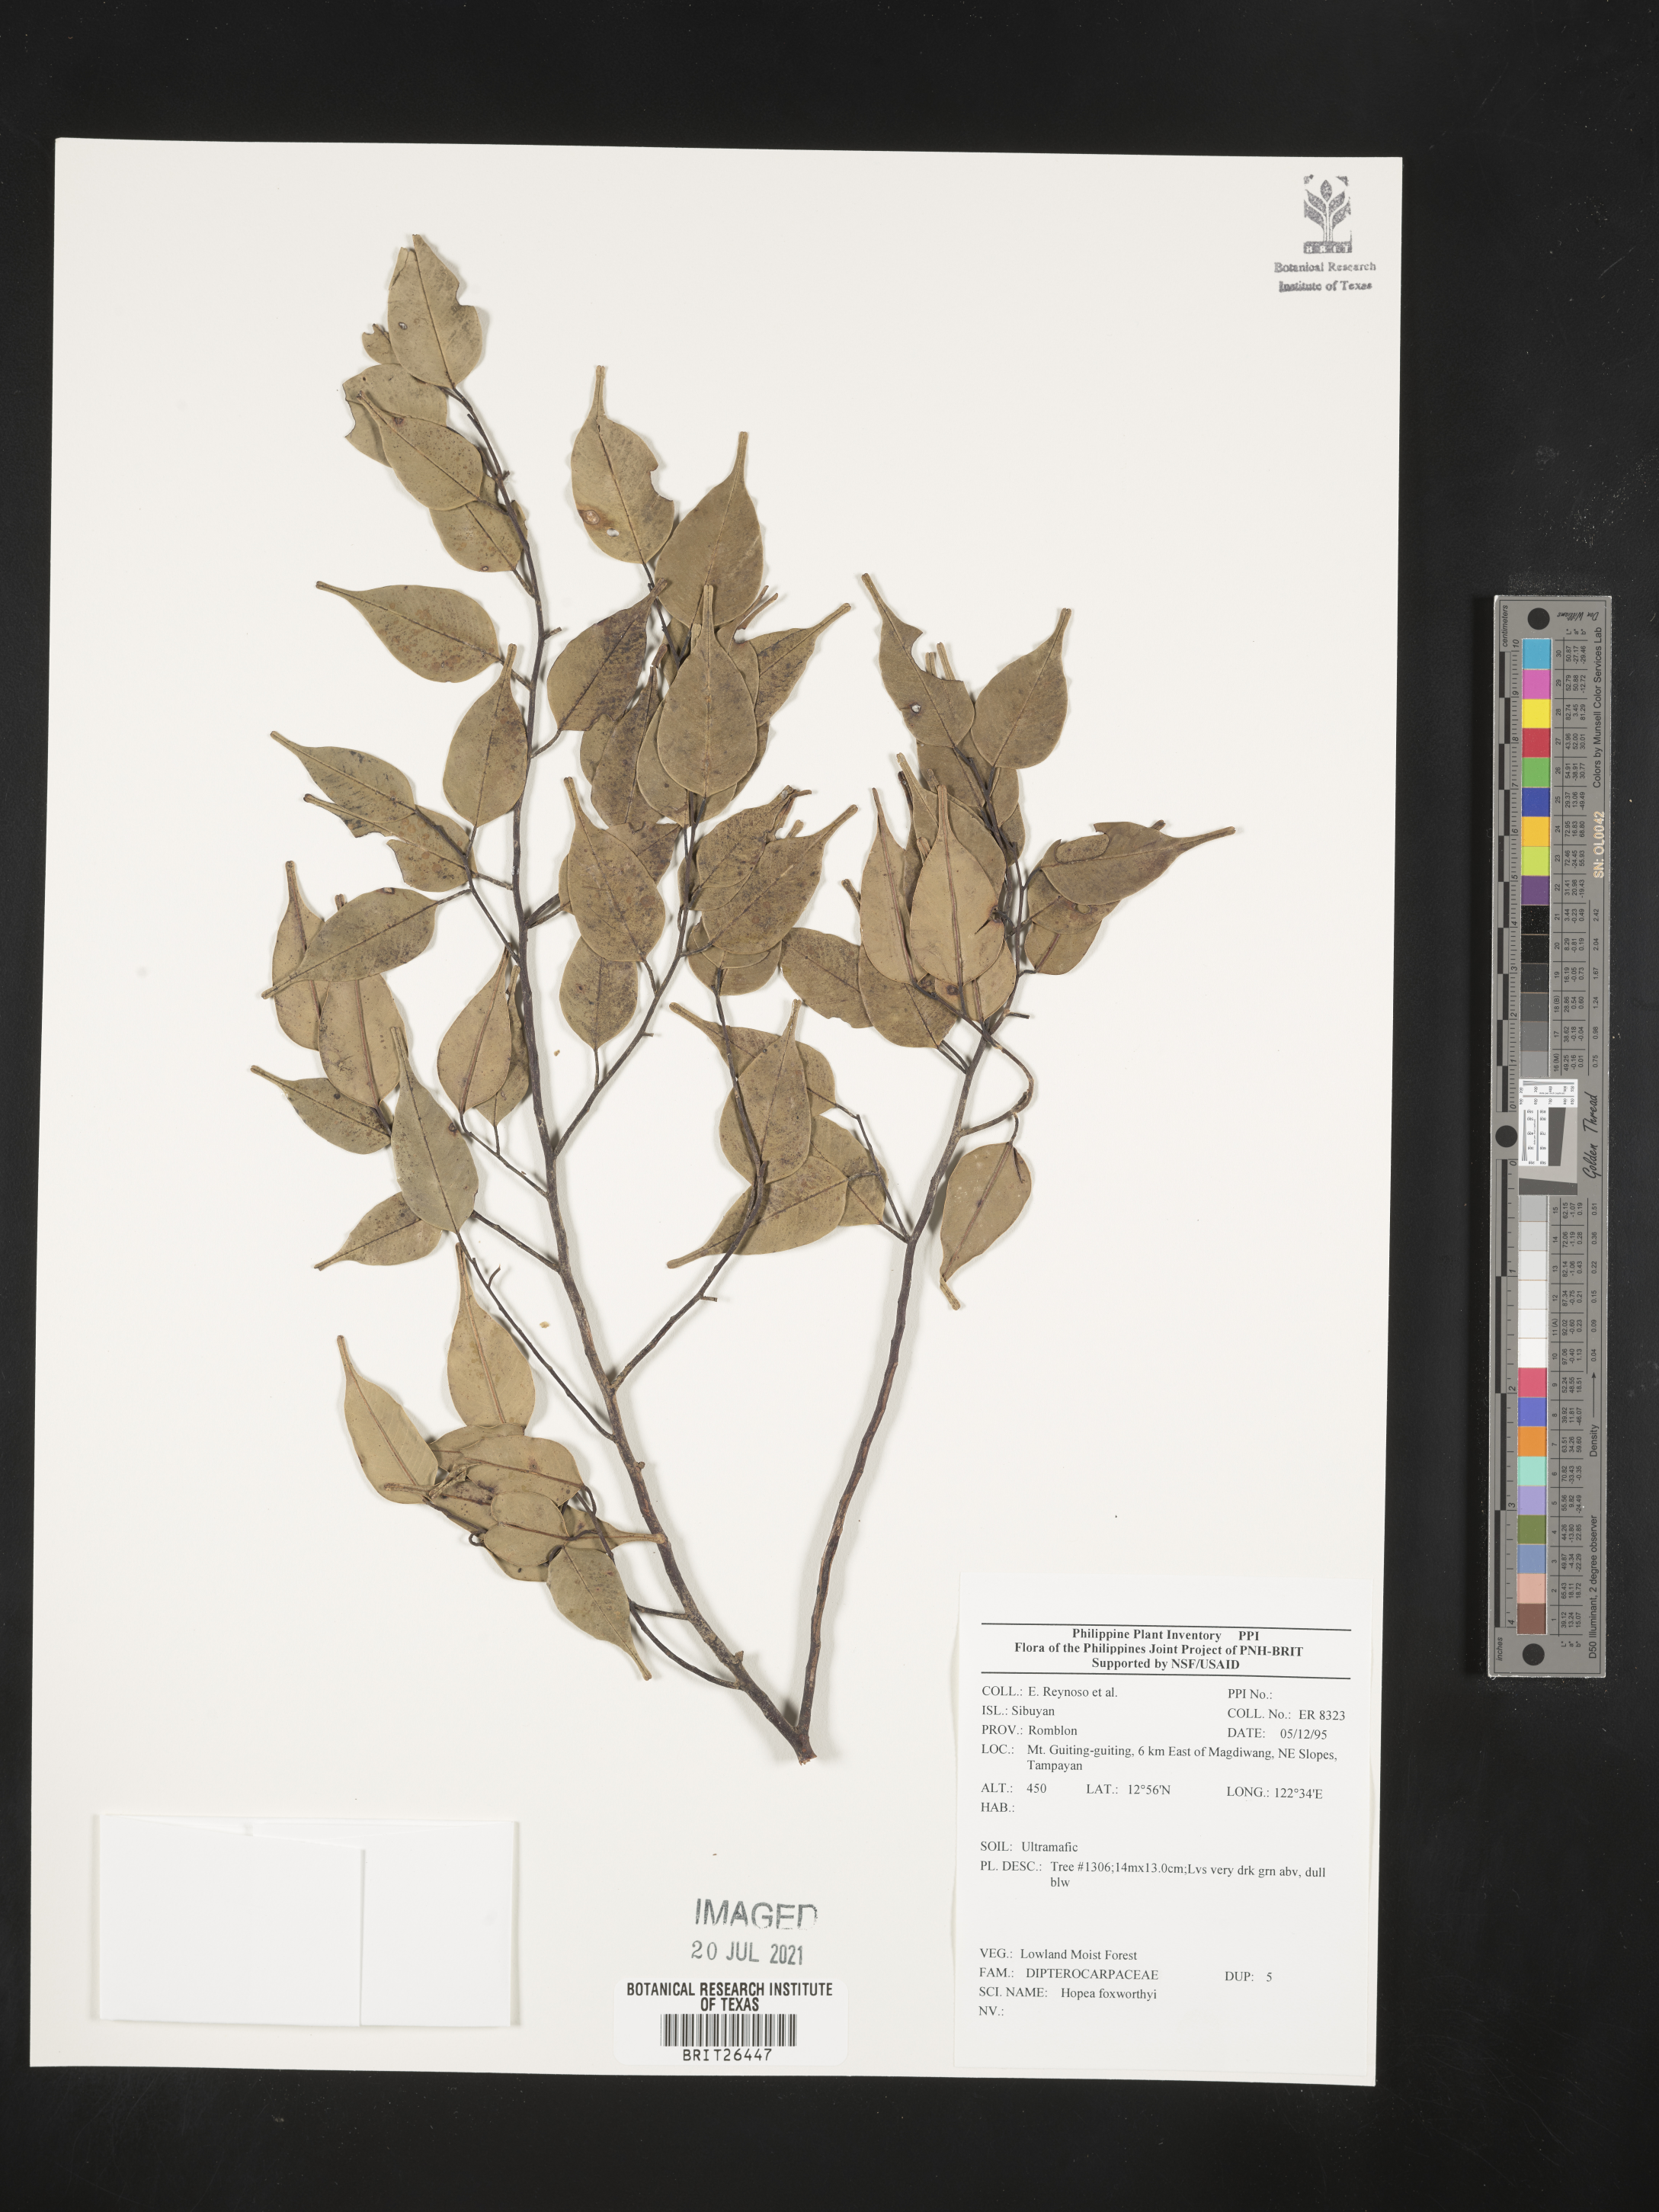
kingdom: Plantae
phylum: Tracheophyta
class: Magnoliopsida
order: Malvales
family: Dipterocarpaceae
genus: Hopea
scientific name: Hopea foxworthyi
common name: Dalingdingan
